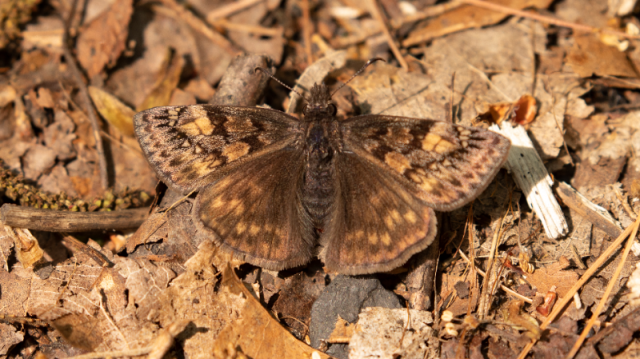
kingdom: Animalia
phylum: Arthropoda
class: Insecta
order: Lepidoptera
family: Hesperiidae
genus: Gesta
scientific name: Gesta
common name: Juvenal's Duskywing
